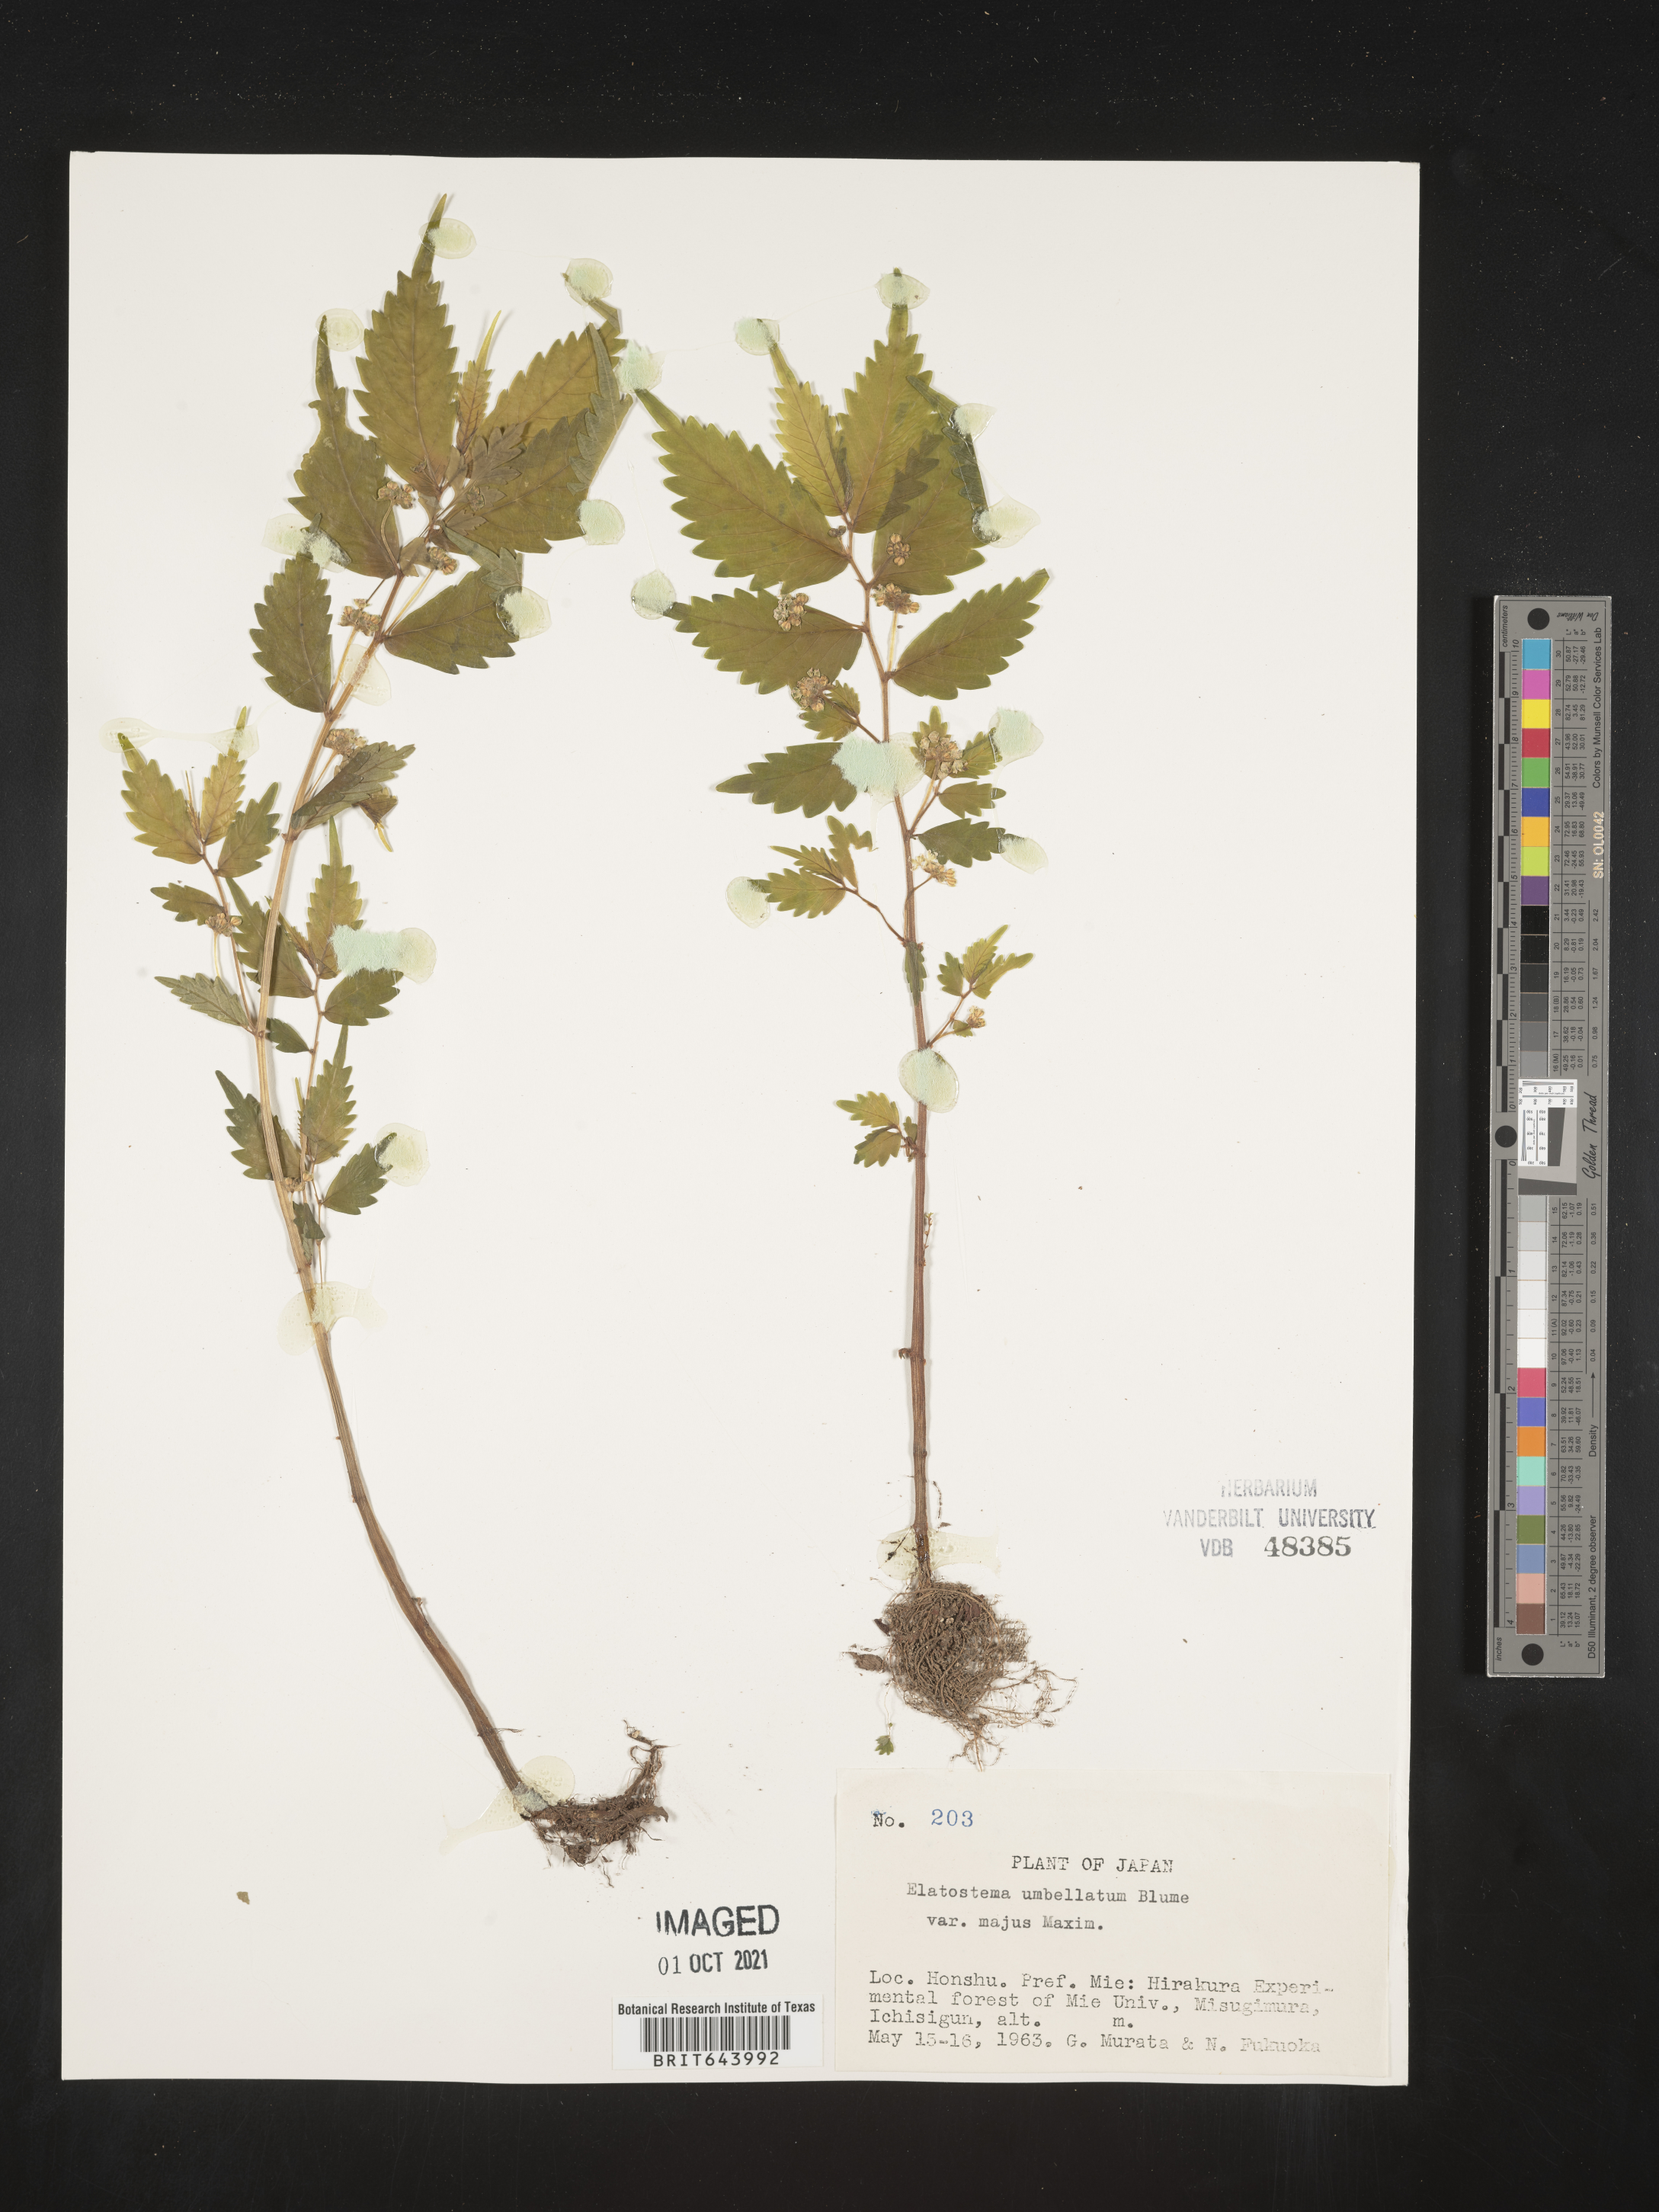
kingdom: Plantae
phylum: Tracheophyta
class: Magnoliopsida
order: Rosales
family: Urticaceae
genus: Elatostema
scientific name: Elatostema
